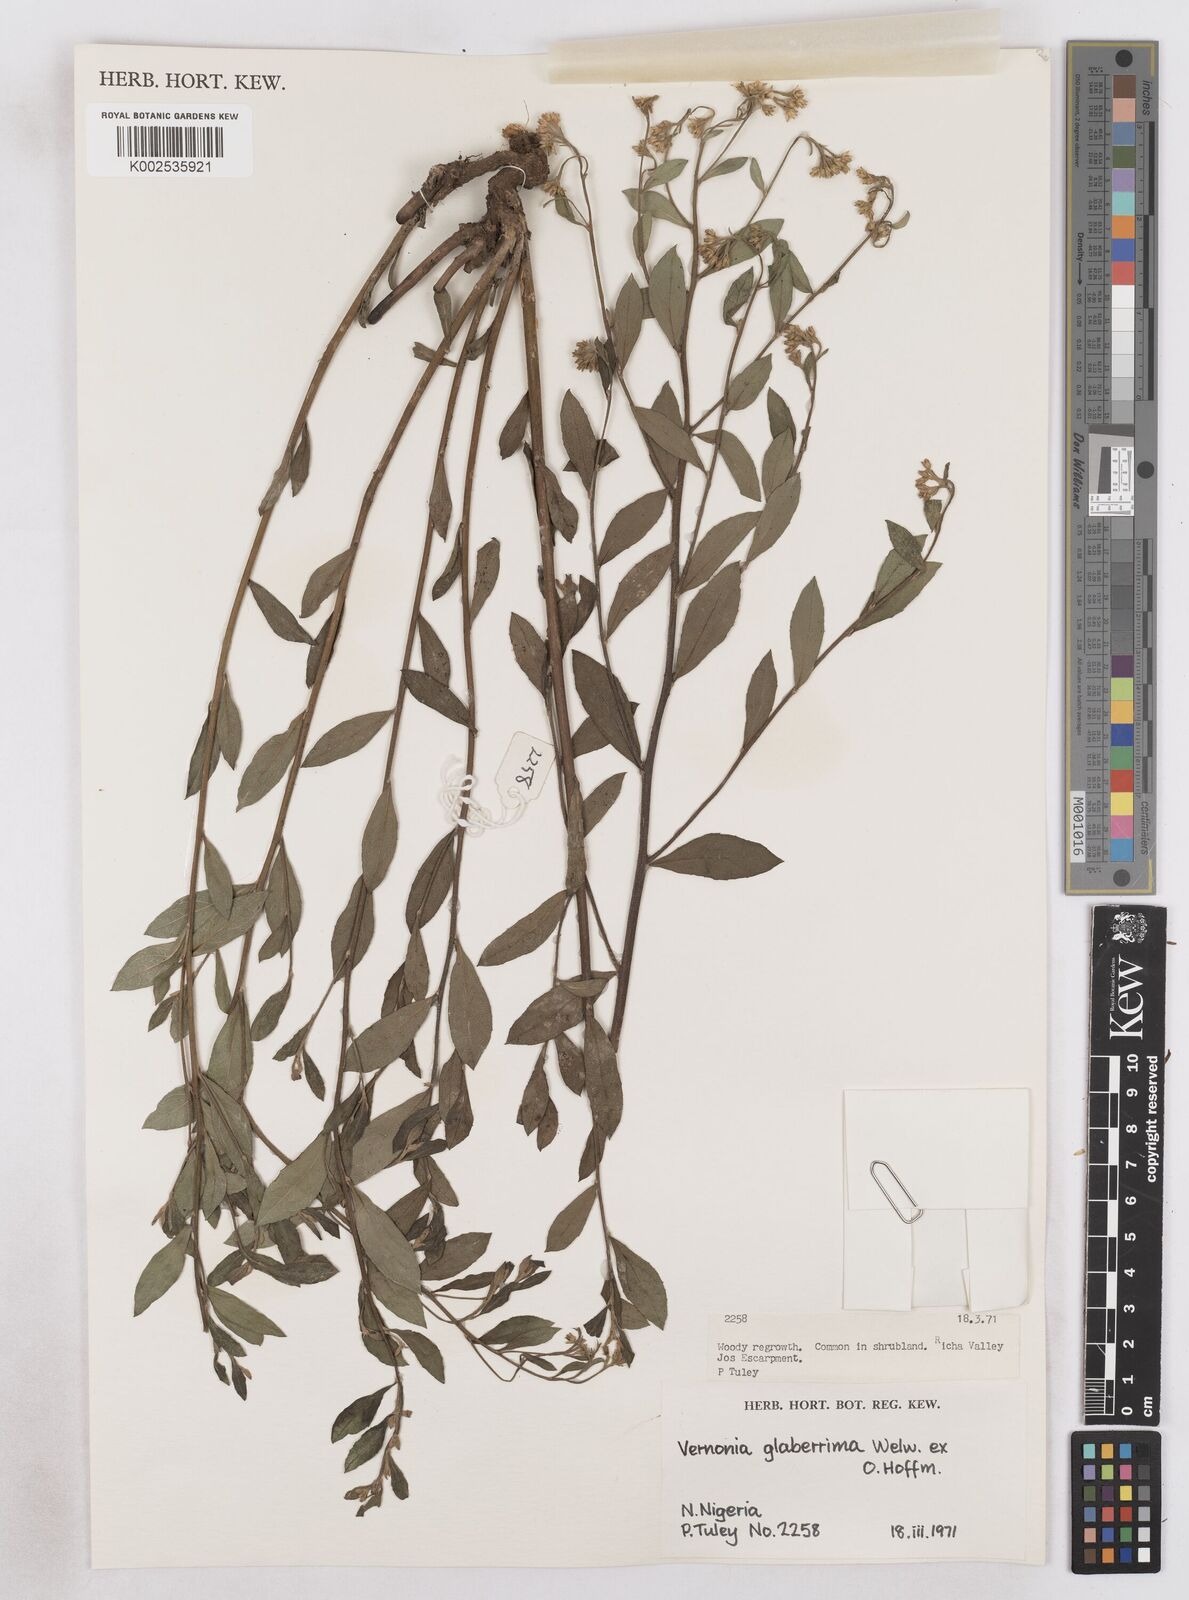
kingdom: Plantae
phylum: Tracheophyta
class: Magnoliopsida
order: Asterales
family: Asteraceae
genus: Gymnanthemum
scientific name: Gymnanthemum glaberrimum
